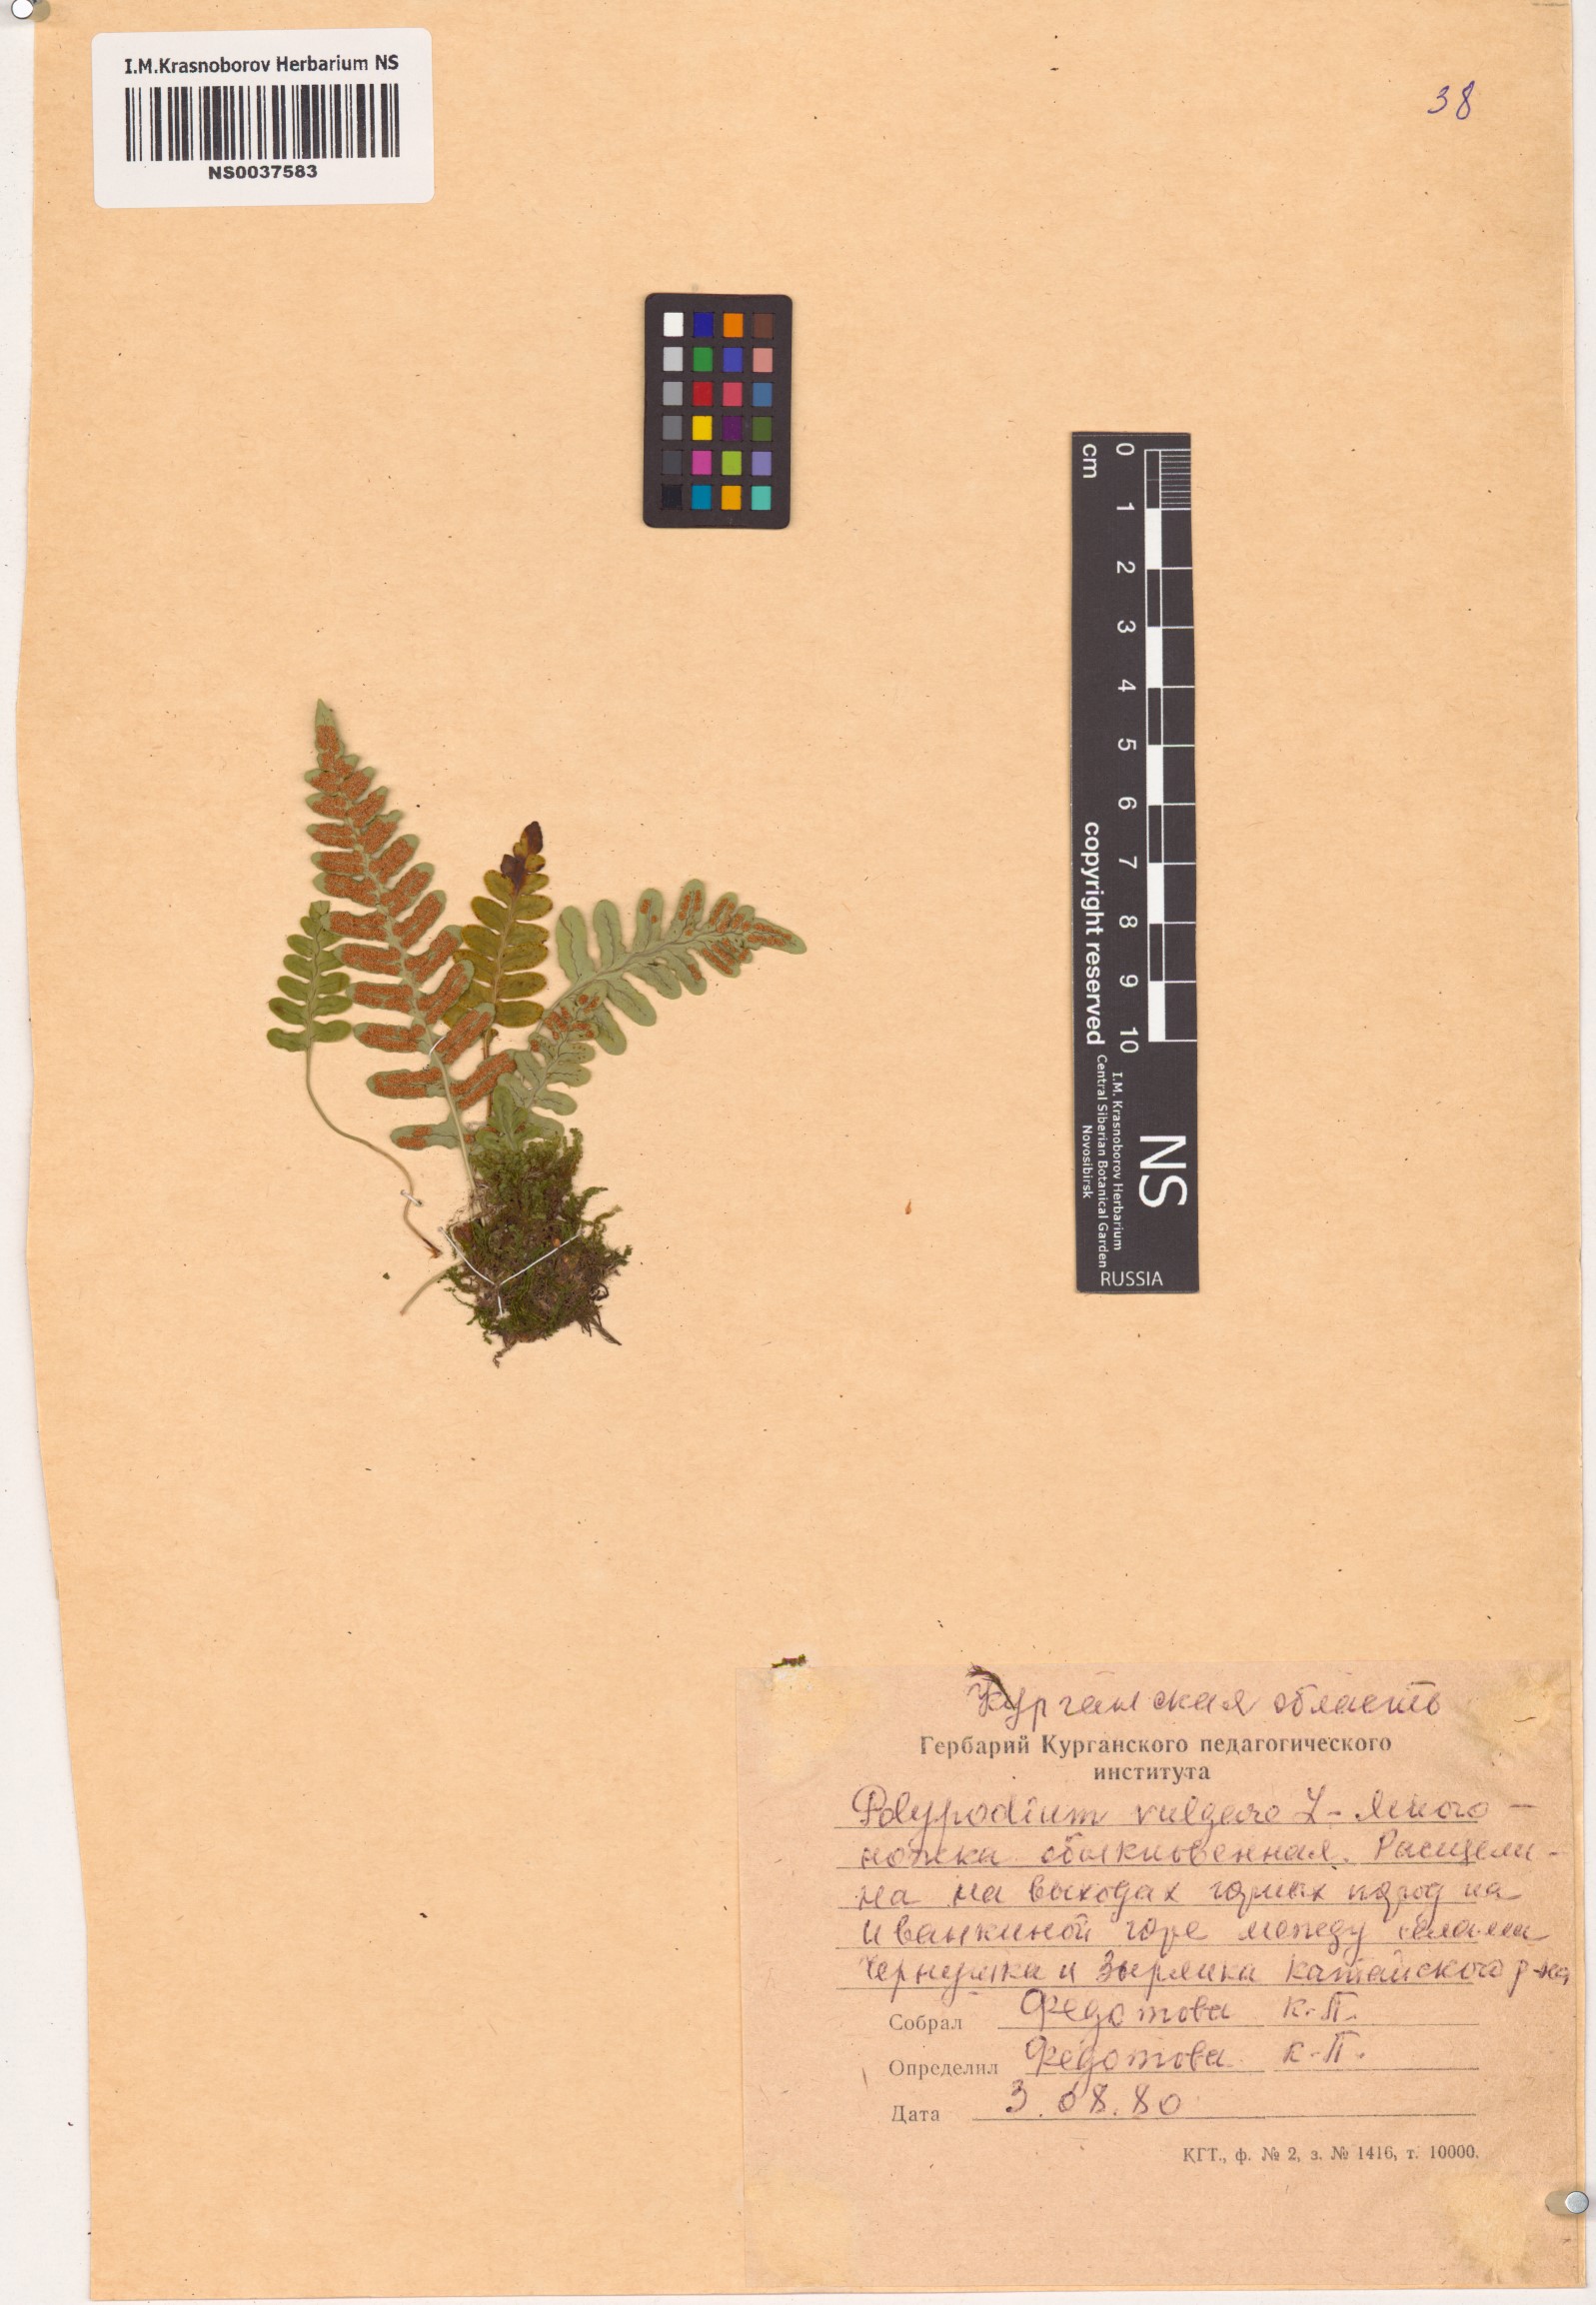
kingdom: Plantae
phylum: Tracheophyta
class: Polypodiopsida
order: Polypodiales
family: Polypodiaceae
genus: Polypodium
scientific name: Polypodium vulgare
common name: Common polypody
